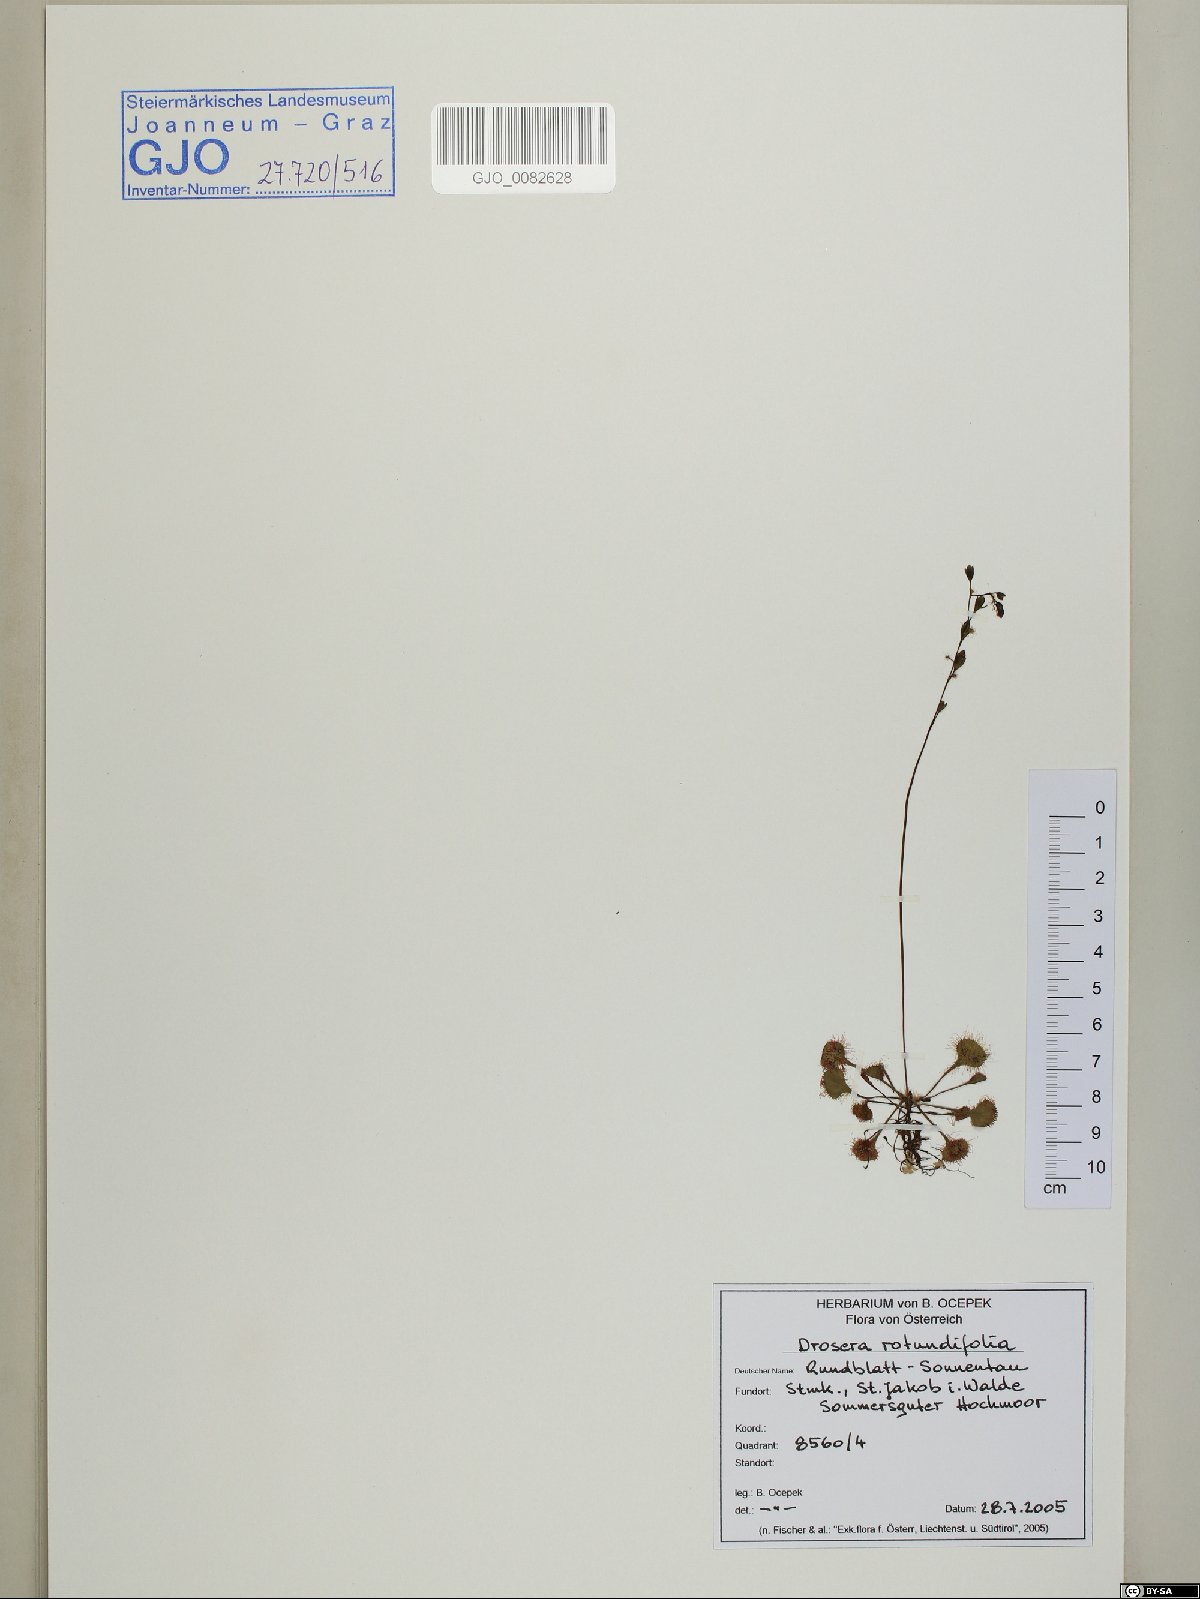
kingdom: Plantae
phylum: Tracheophyta
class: Magnoliopsida
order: Caryophyllales
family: Droseraceae
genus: Drosera
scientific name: Drosera rotundifolia
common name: Round-leaved sundew
